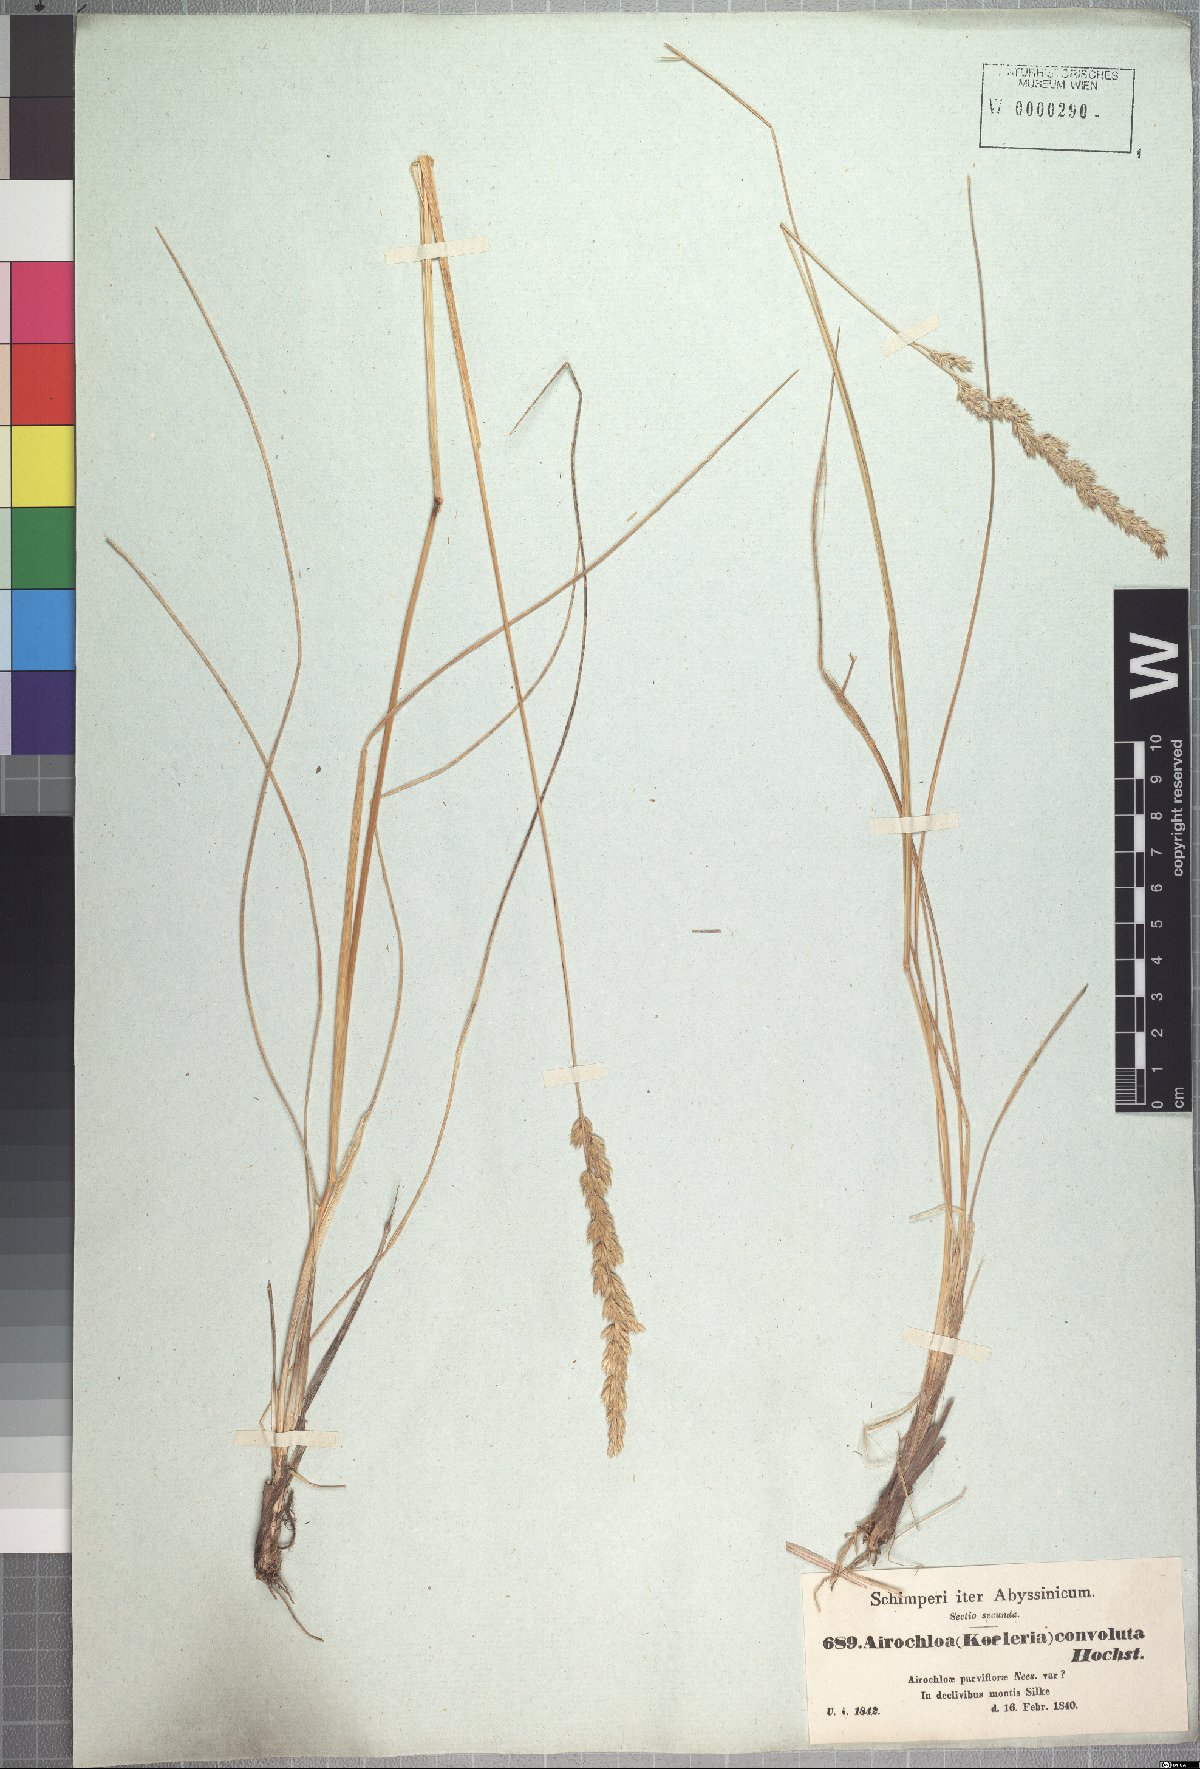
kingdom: Plantae
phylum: Tracheophyta
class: Liliopsida
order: Poales
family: Poaceae
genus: Koeleria
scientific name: Koeleria capensis
